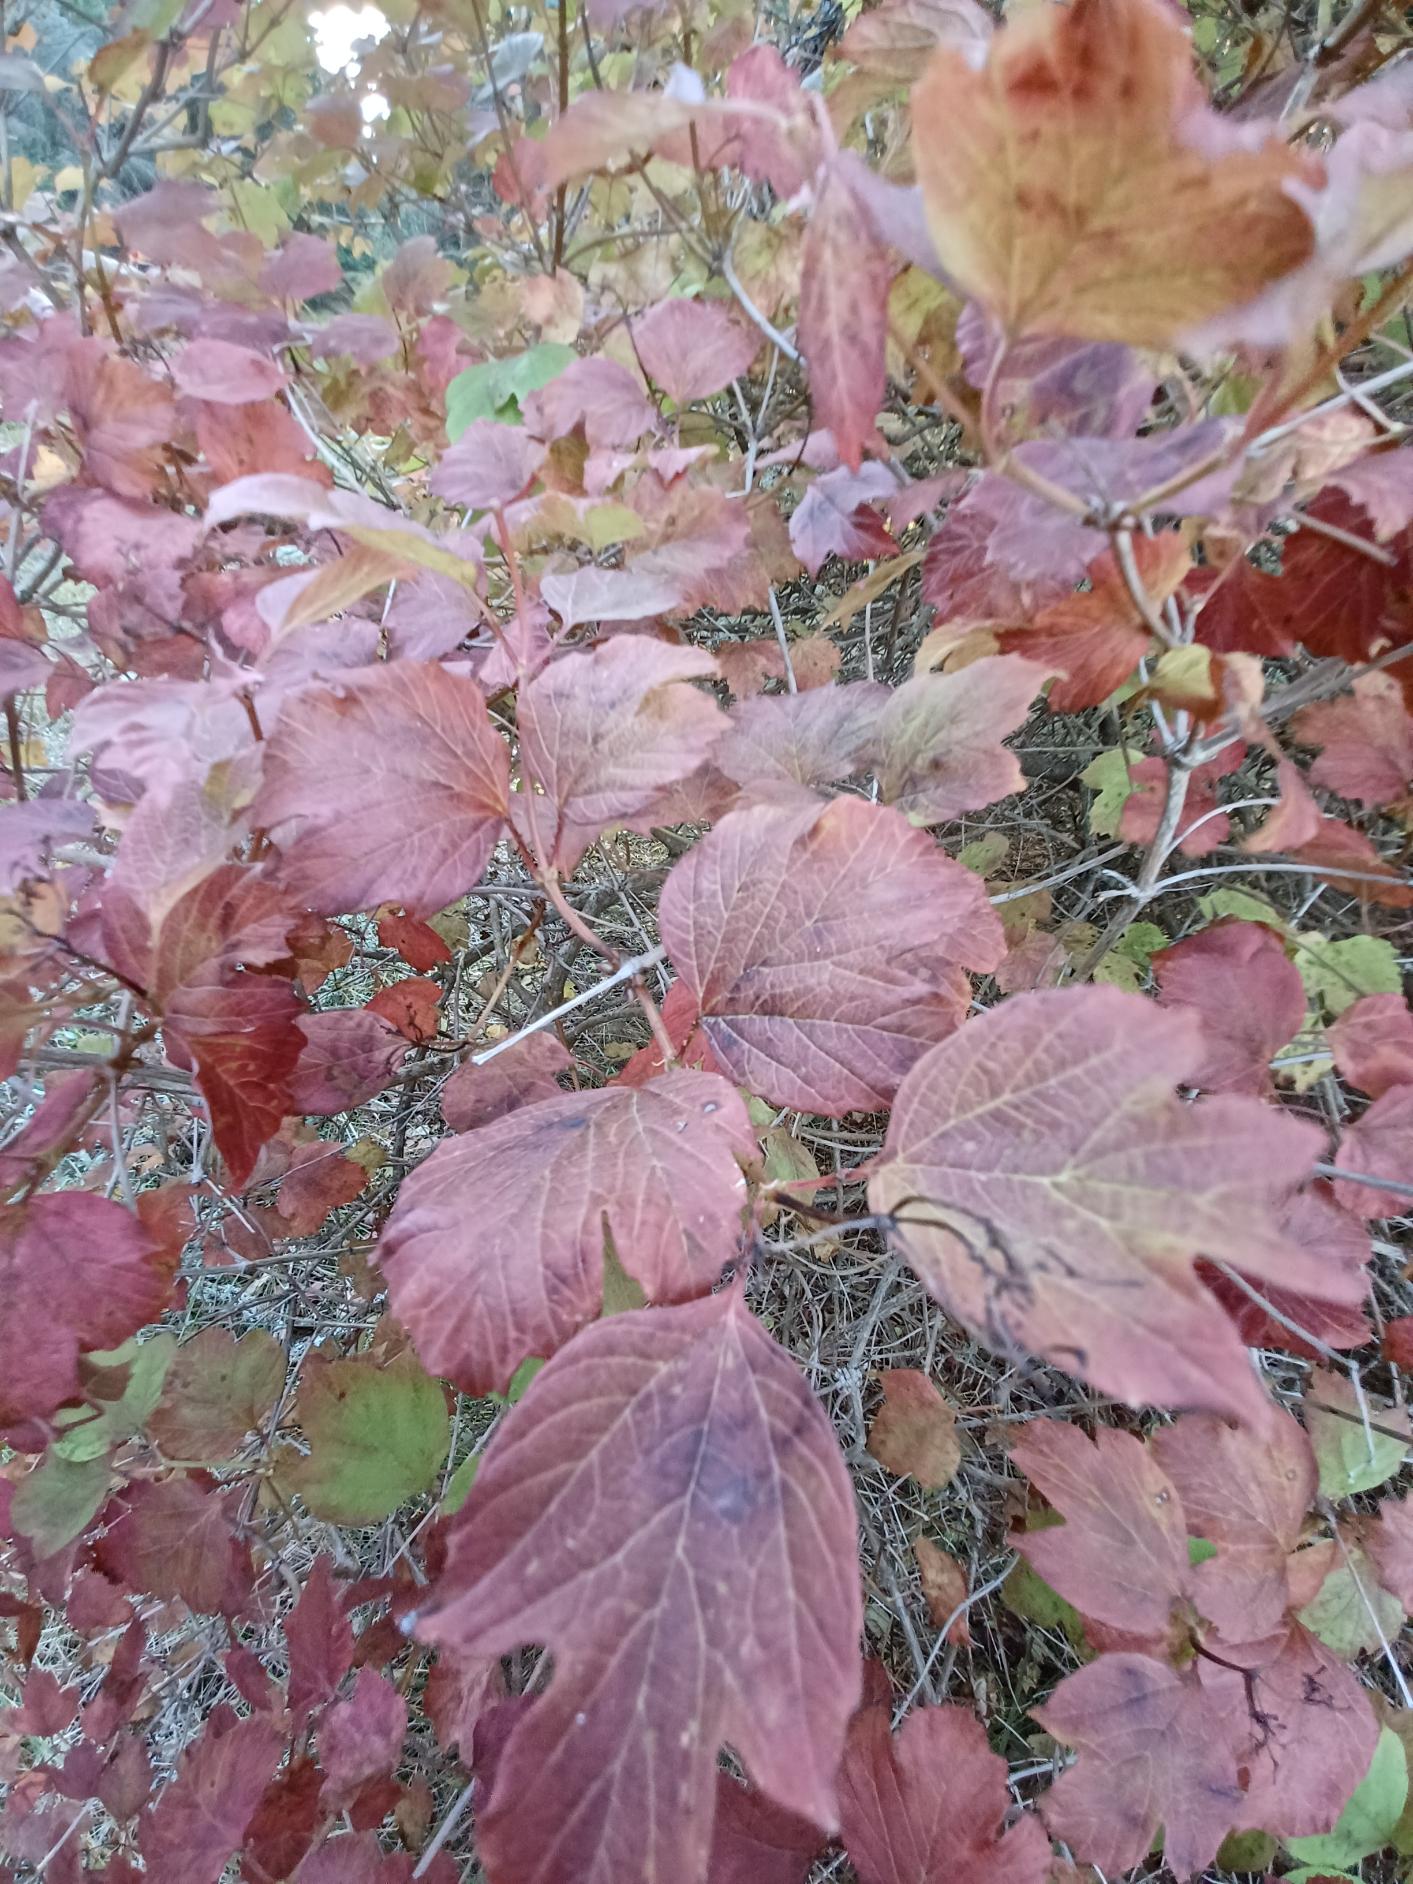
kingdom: Plantae
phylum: Tracheophyta
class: Magnoliopsida
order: Dipsacales
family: Viburnaceae
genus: Viburnum
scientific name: Viburnum opulus
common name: Kvalkved
